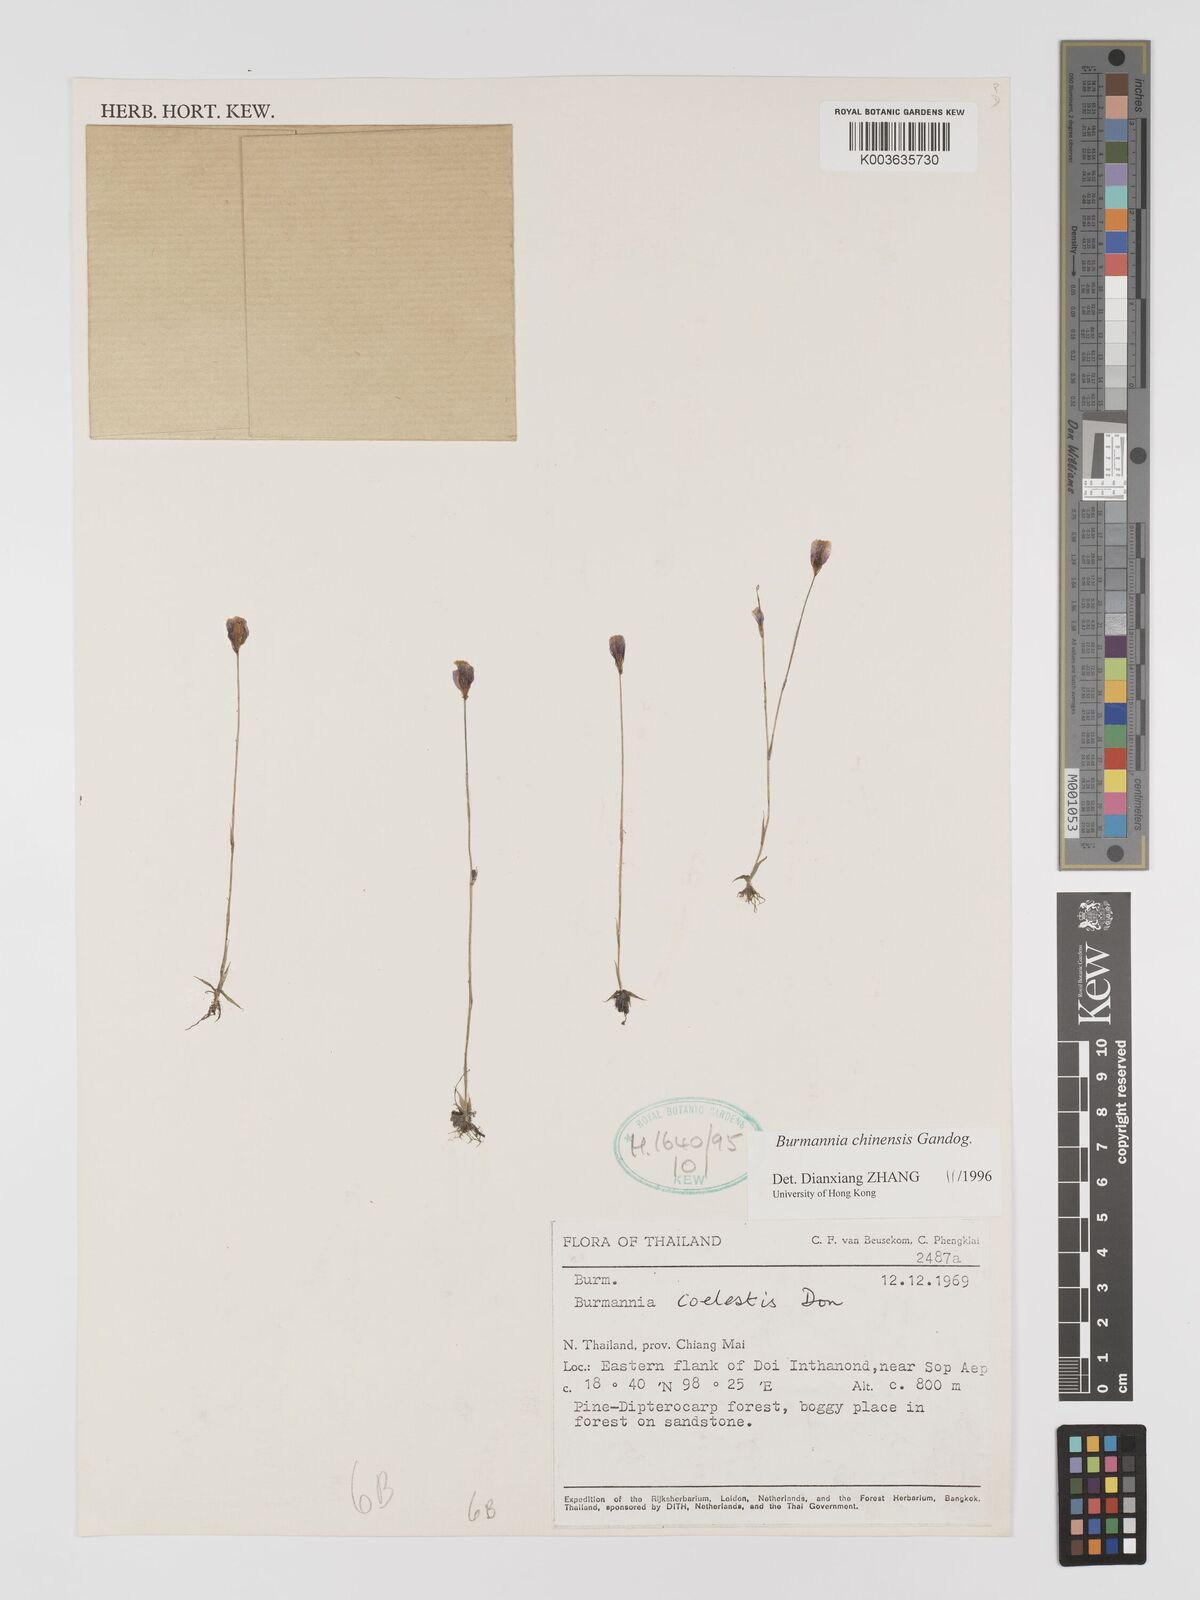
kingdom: Plantae
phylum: Tracheophyta
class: Liliopsida
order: Dioscoreales
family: Burmanniaceae
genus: Burmannia
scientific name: Burmannia coelestis
